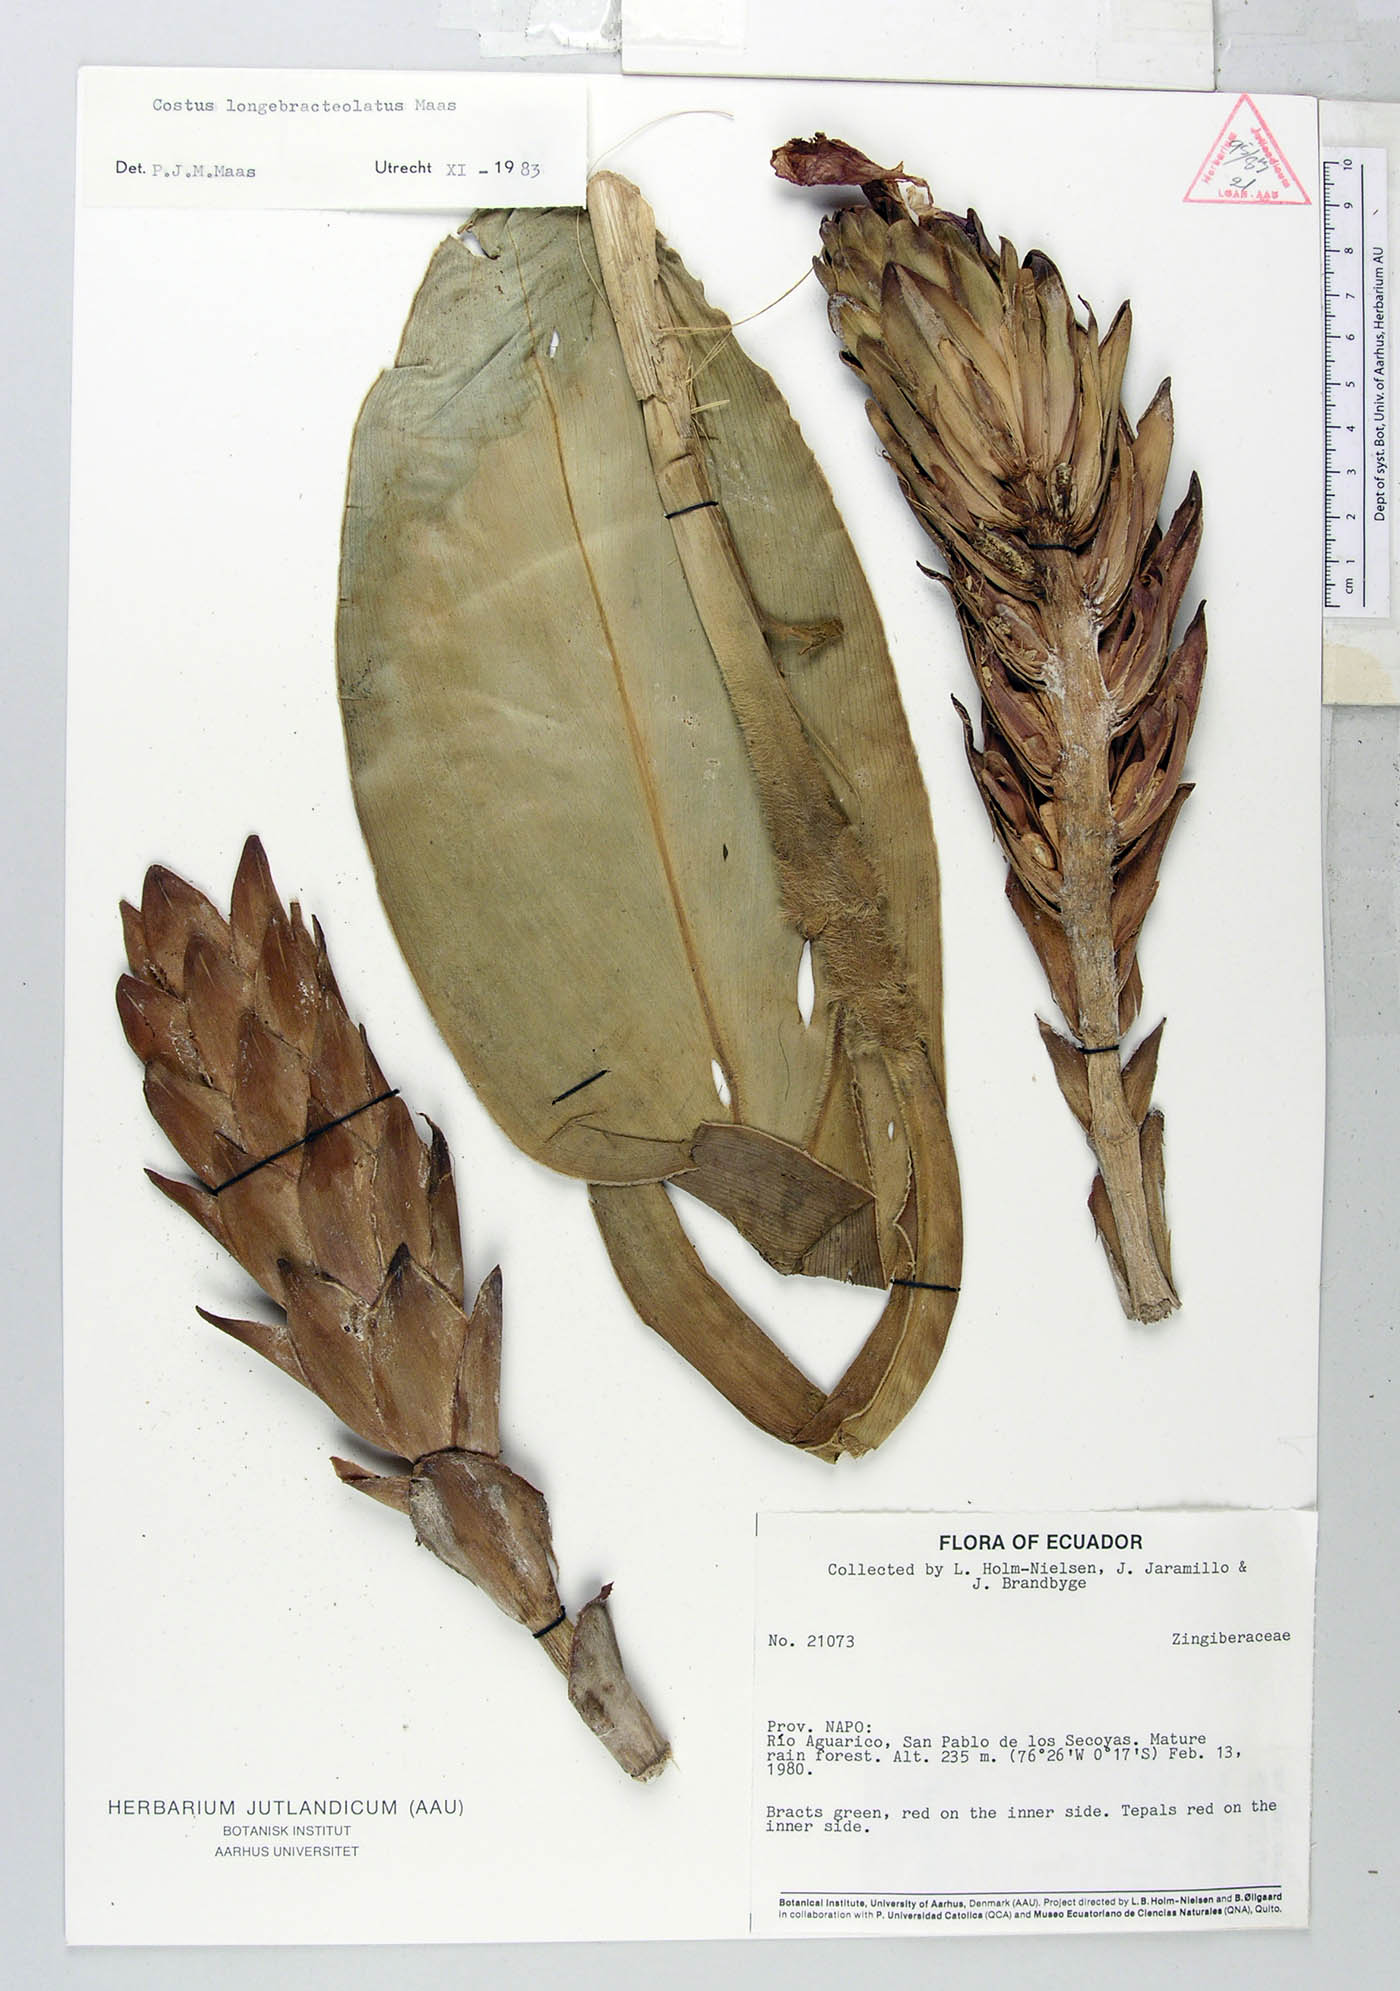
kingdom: Plantae
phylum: Tracheophyta
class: Liliopsida
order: Zingiberales
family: Costaceae
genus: Costus
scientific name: Costus longebracteolatus
